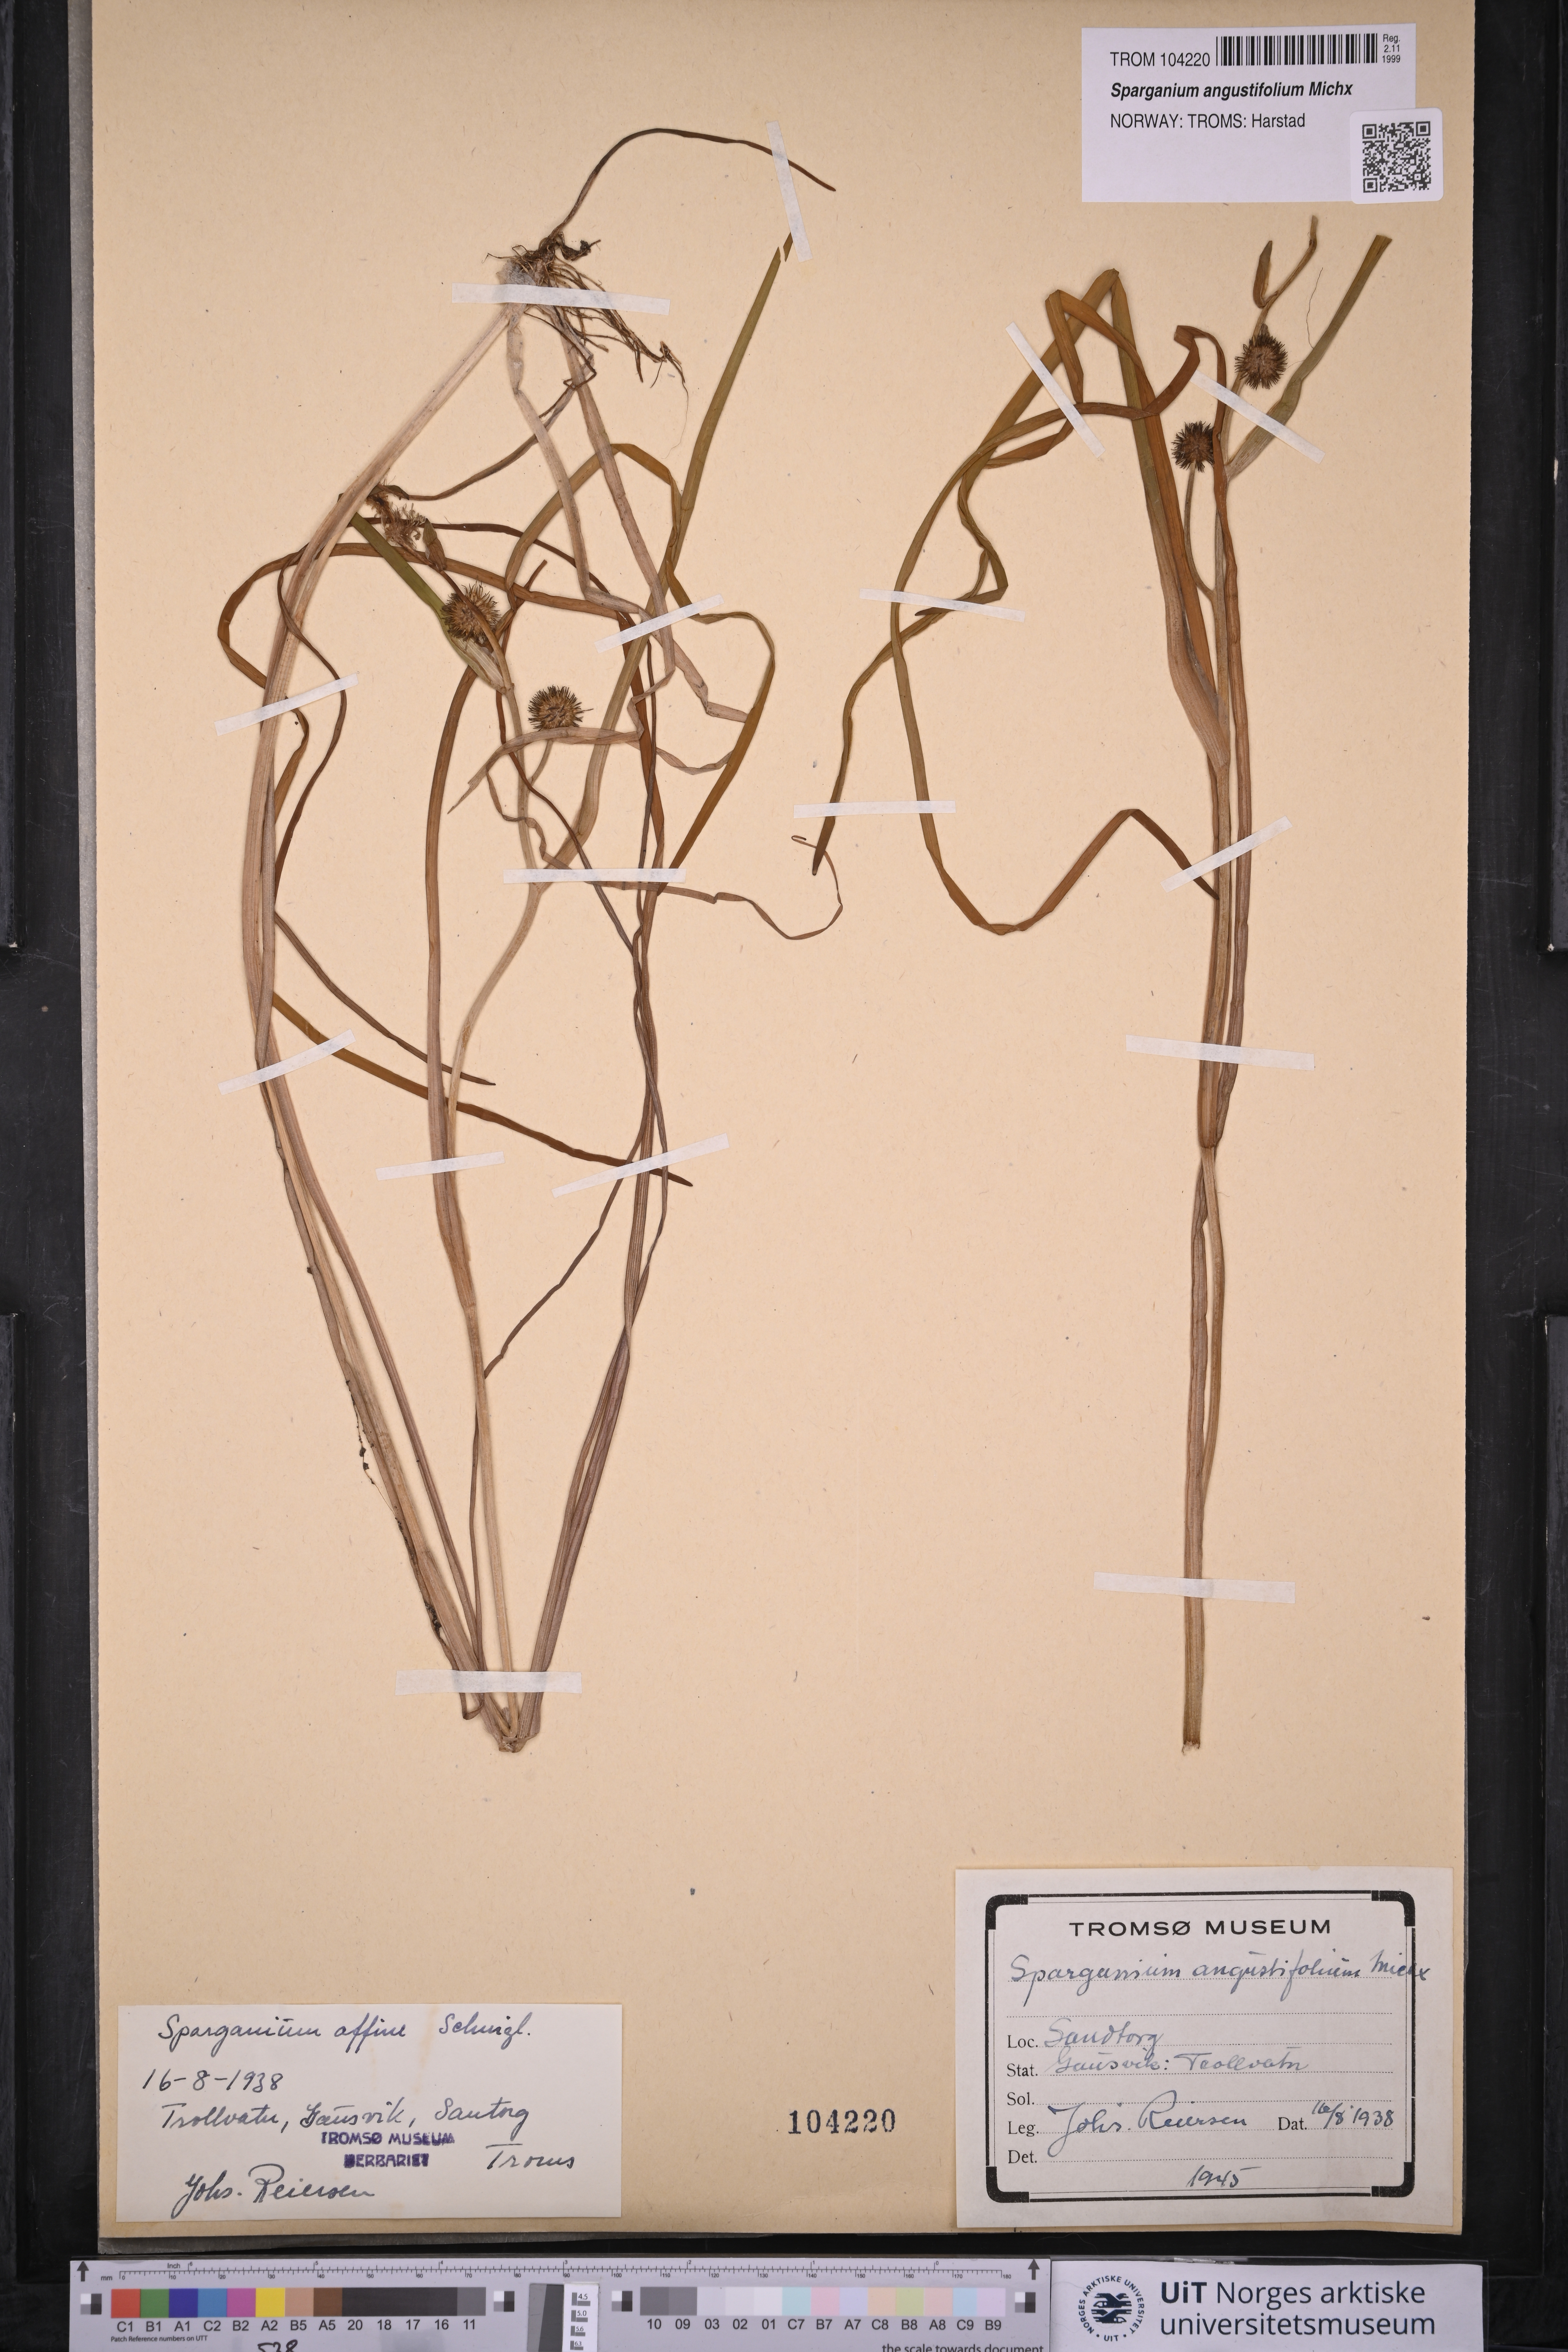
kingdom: Plantae
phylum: Tracheophyta
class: Liliopsida
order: Poales
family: Typhaceae
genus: Sparganium
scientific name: Sparganium angustifolium
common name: Floating bur-reed
